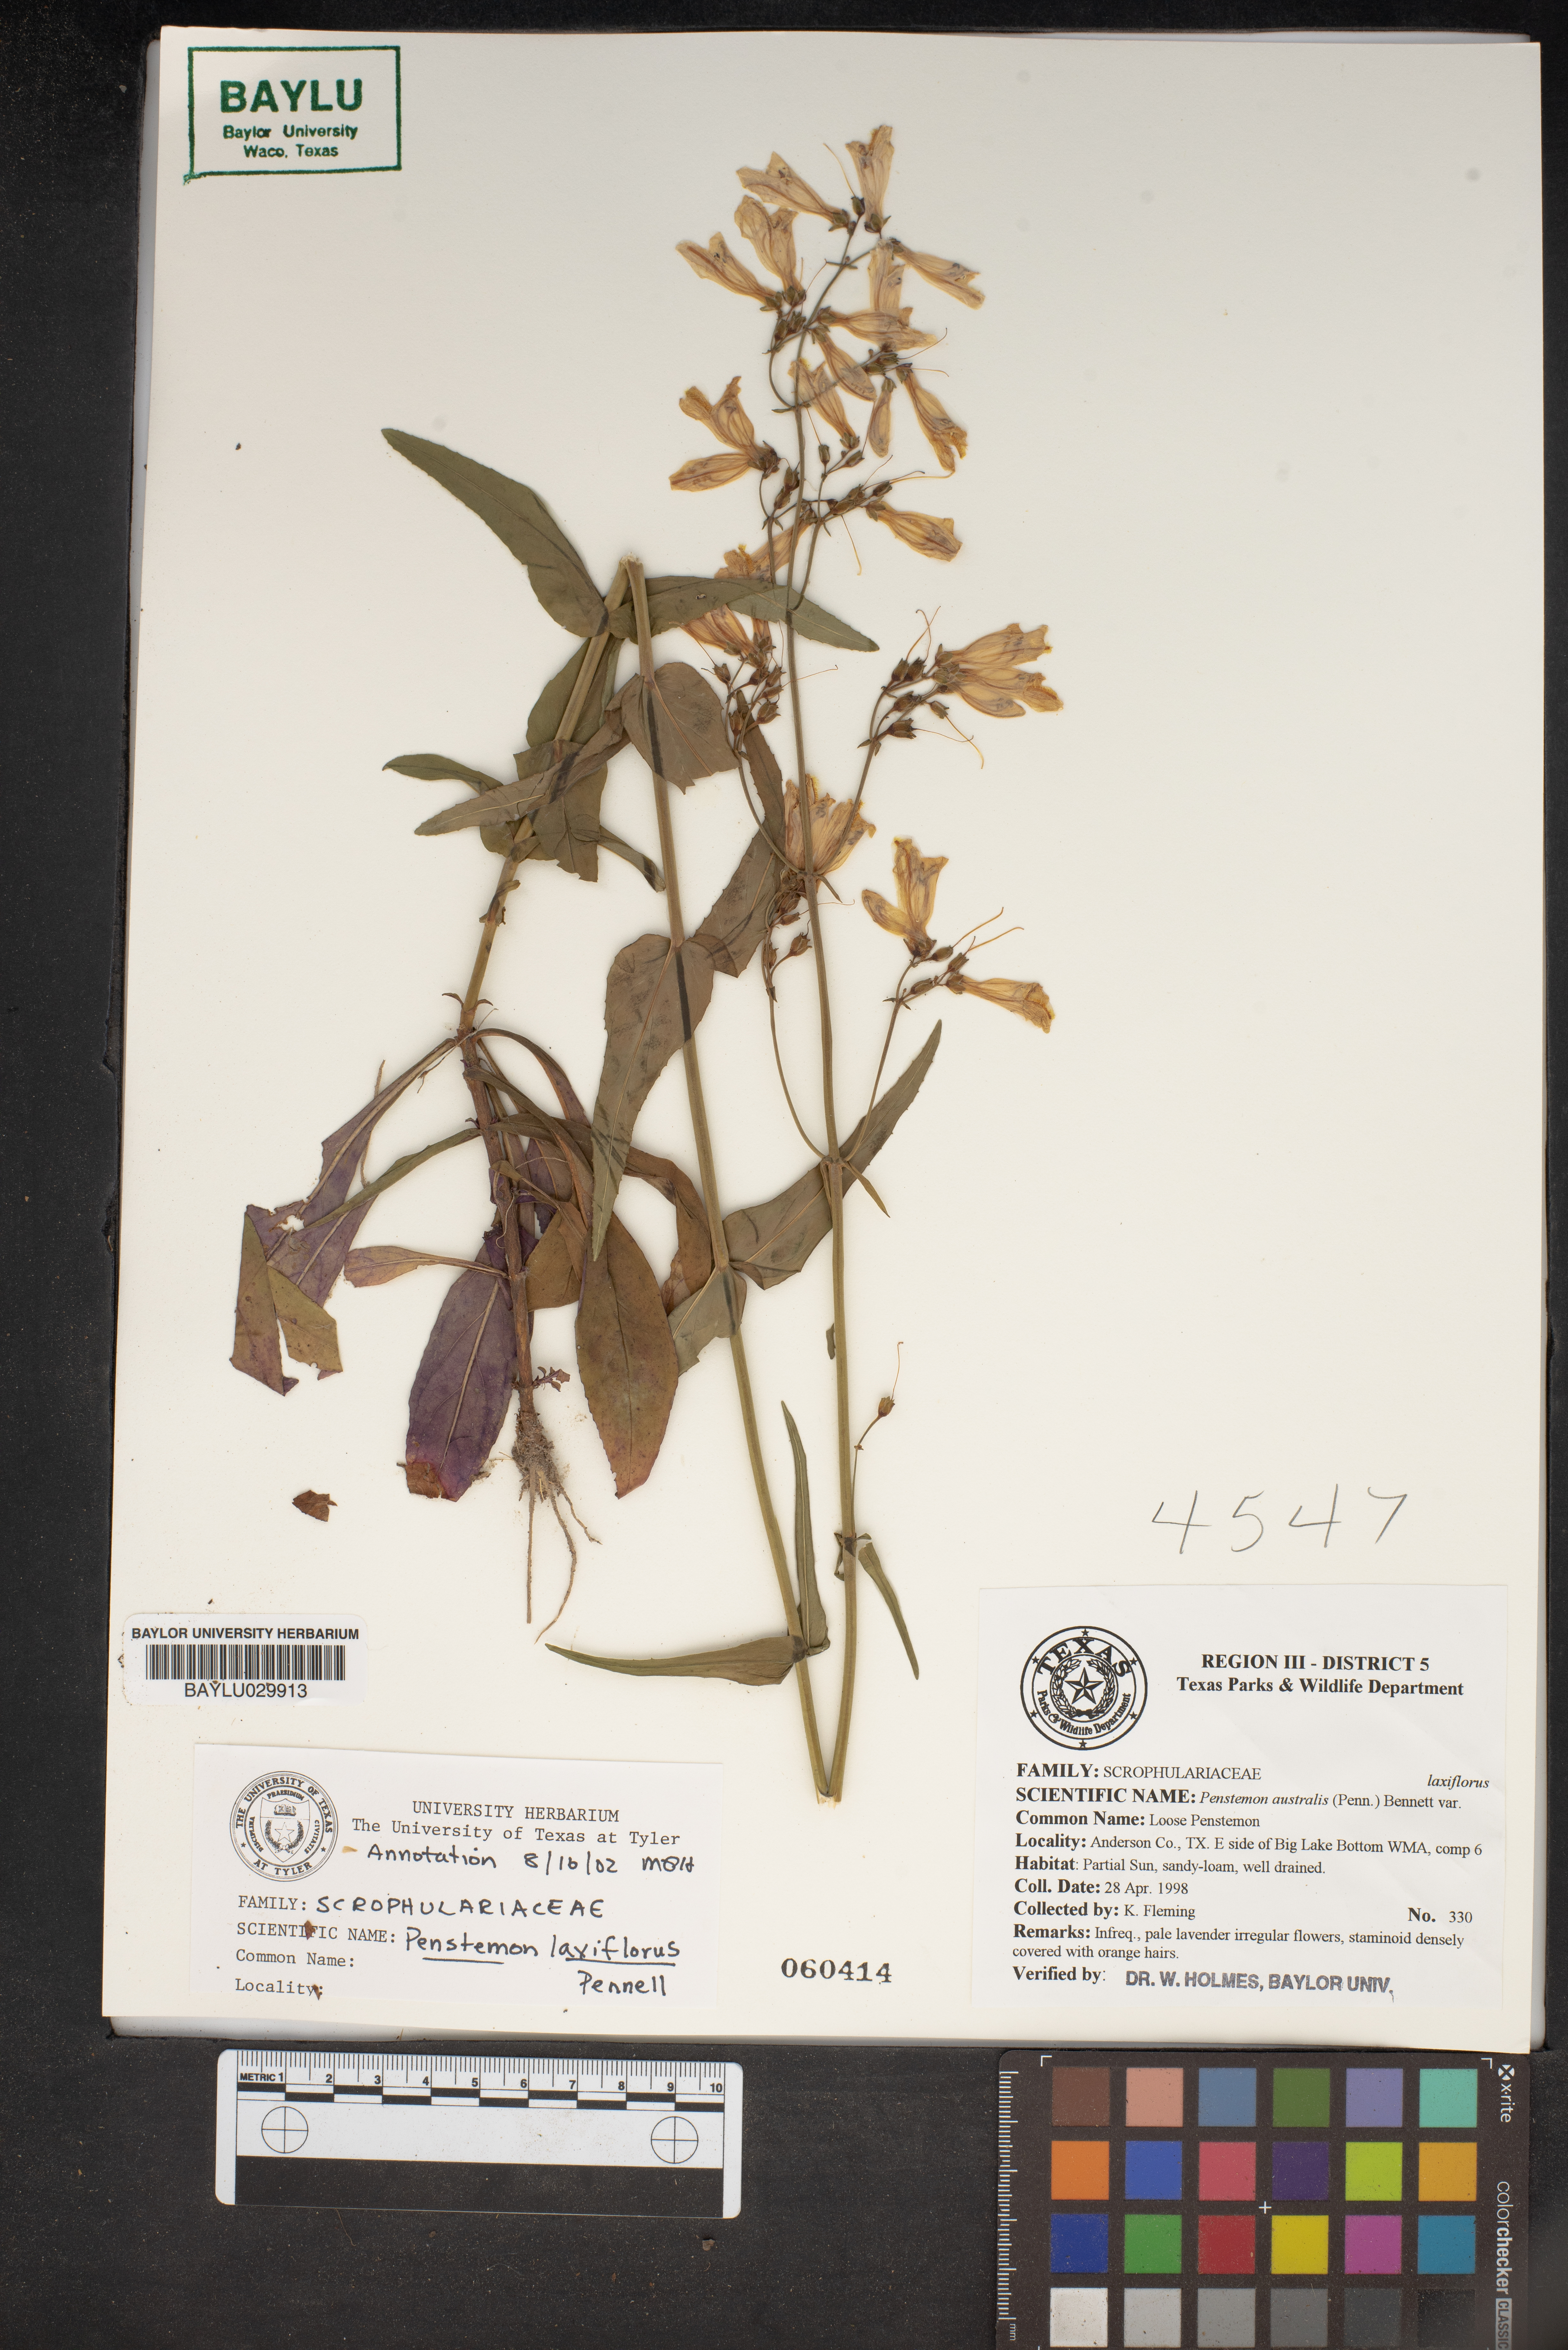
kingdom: Plantae
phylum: Tracheophyta
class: Magnoliopsida
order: Lamiales
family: Plantaginaceae
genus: Penstemon
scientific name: Penstemon laxiflorus
